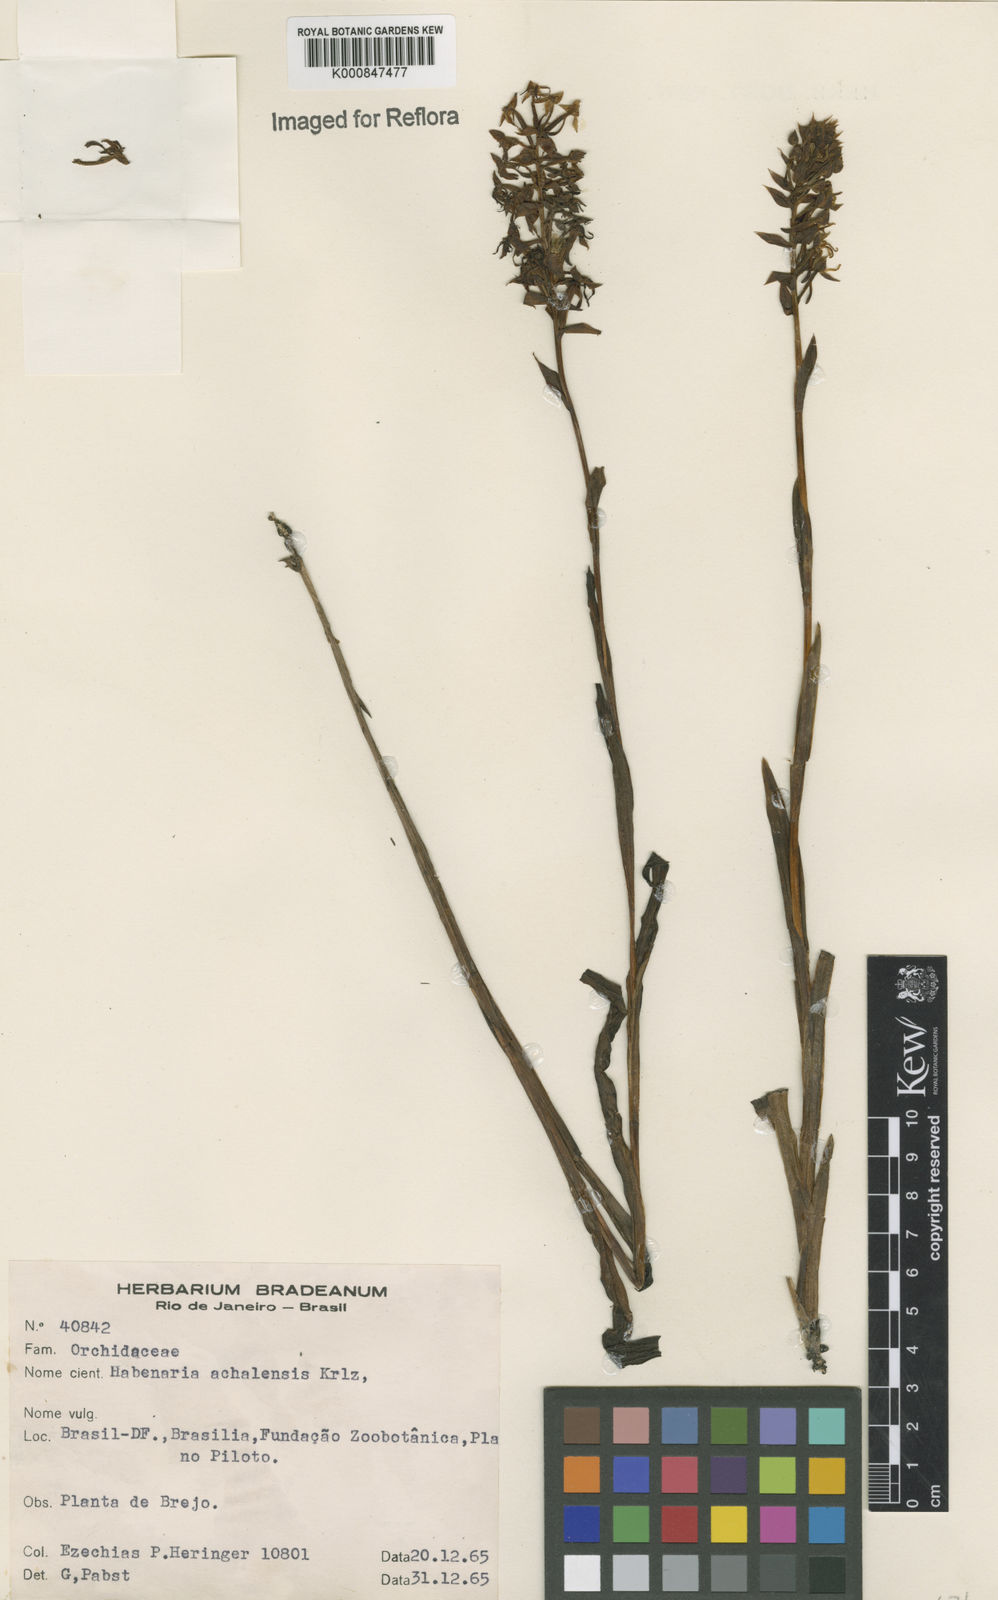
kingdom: Plantae
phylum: Tracheophyta
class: Liliopsida
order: Asparagales
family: Orchidaceae
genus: Habenaria
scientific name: Habenaria achalensis
